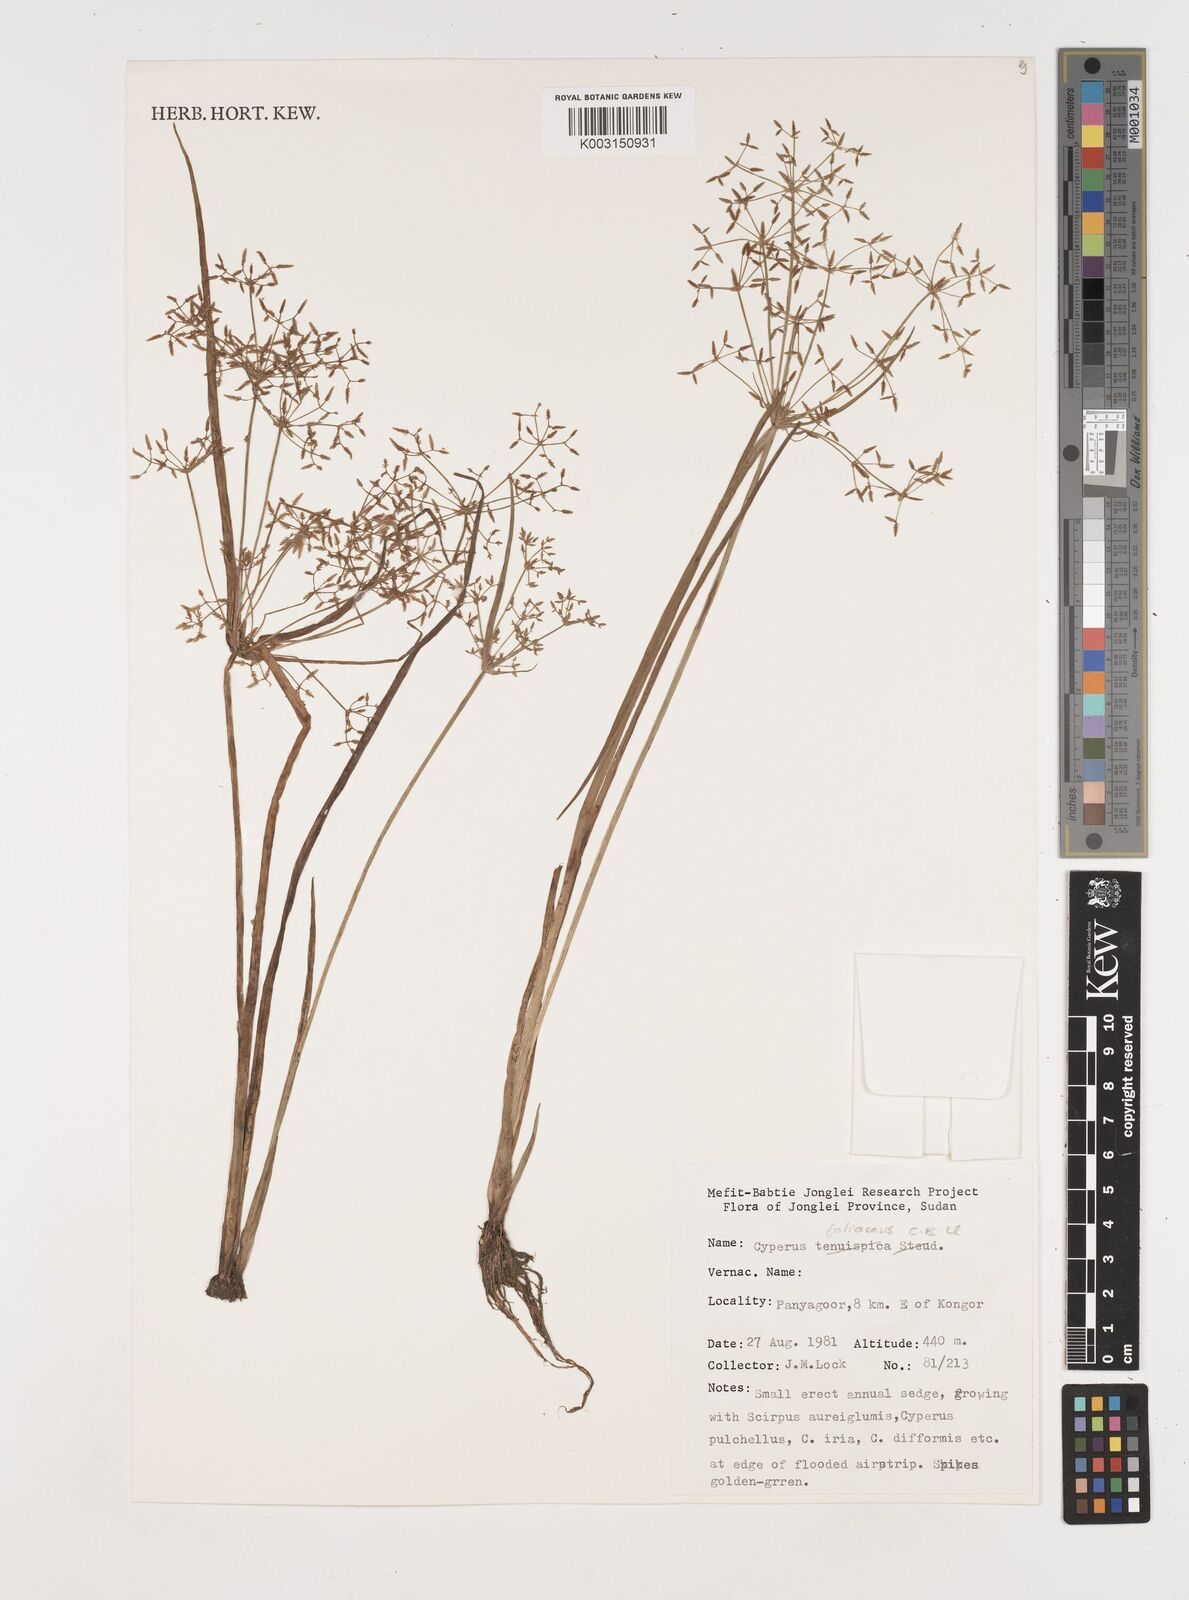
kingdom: Plantae
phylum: Tracheophyta
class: Liliopsida
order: Poales
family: Cyperaceae
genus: Cyperus
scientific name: Cyperus foliaceus
